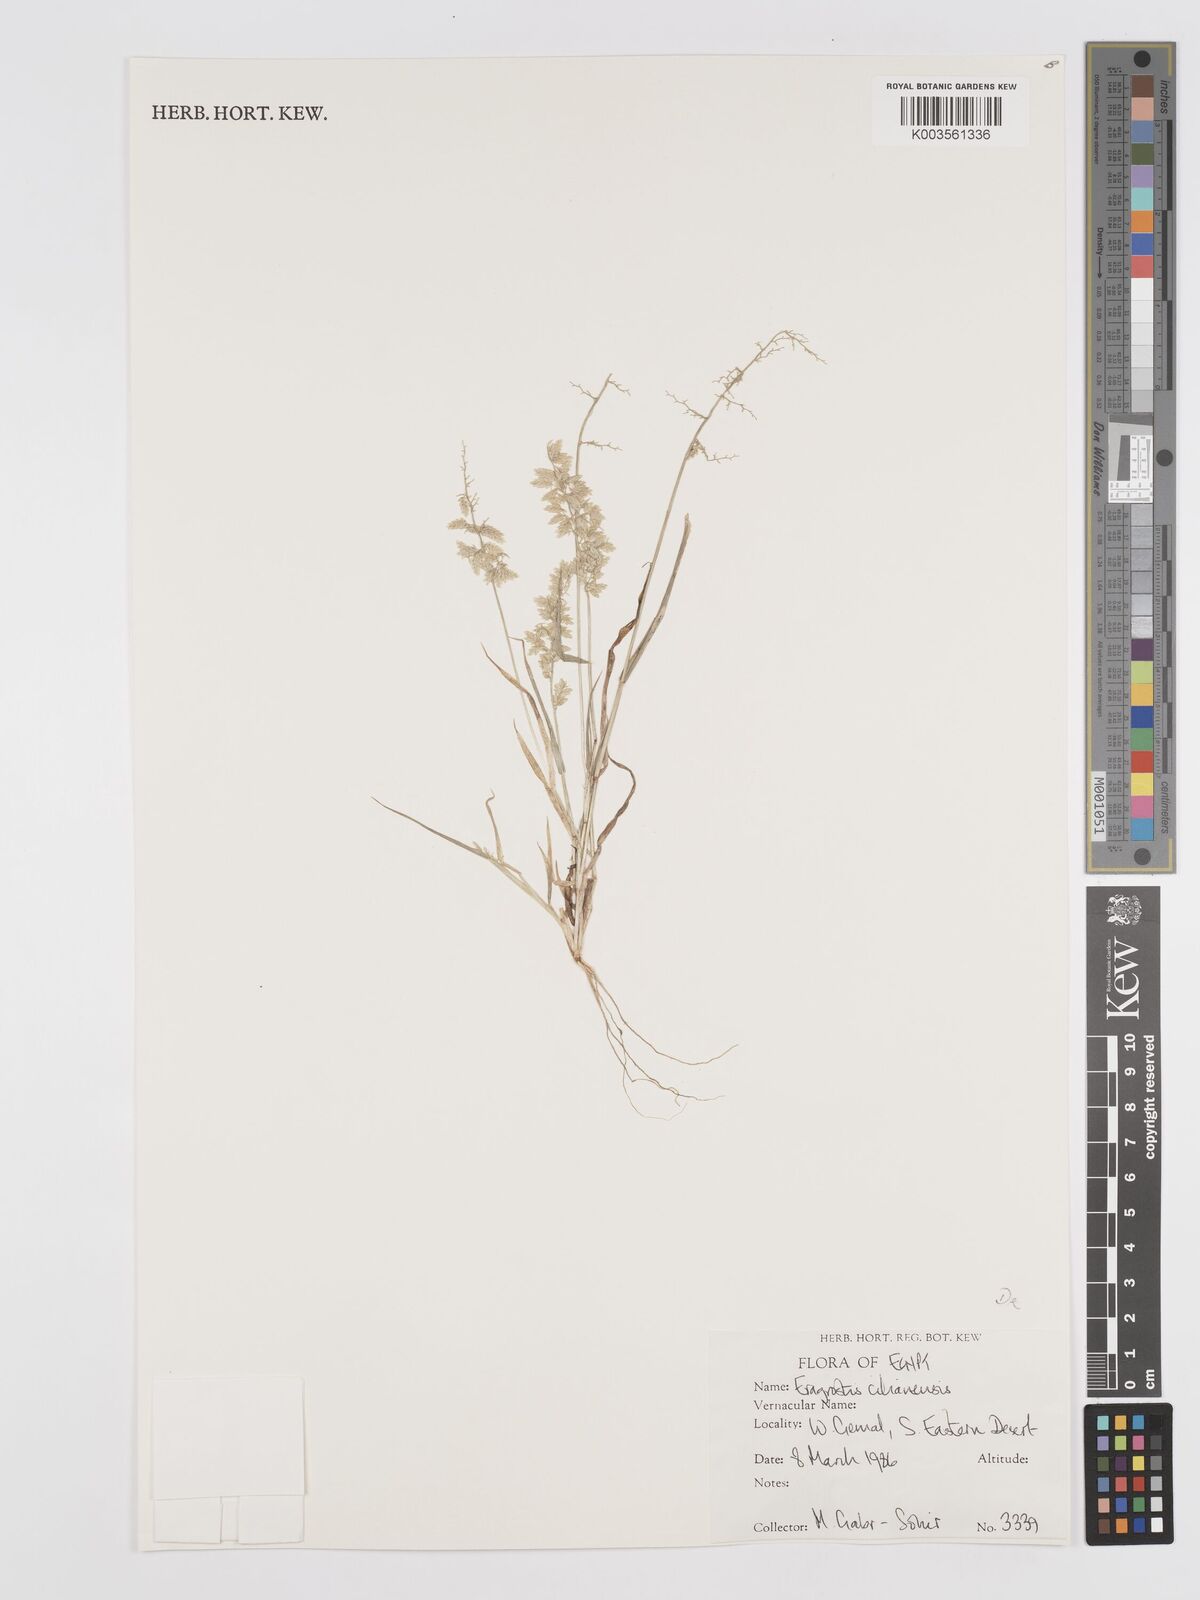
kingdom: Plantae
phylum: Tracheophyta
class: Liliopsida
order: Poales
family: Poaceae
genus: Eragrostis
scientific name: Eragrostis cilianensis
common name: Stinkgrass
